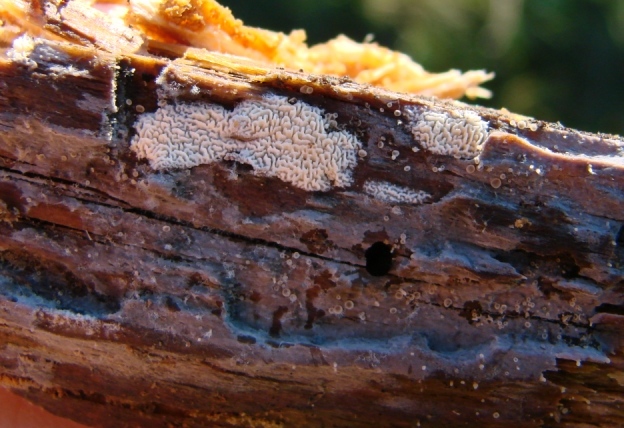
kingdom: Fungi
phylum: Basidiomycota
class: Agaricomycetes
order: Hymenochaetales
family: Schizoporaceae
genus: Xylodon
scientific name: Xylodon subtropicus
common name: labyrint-tandsvamp
